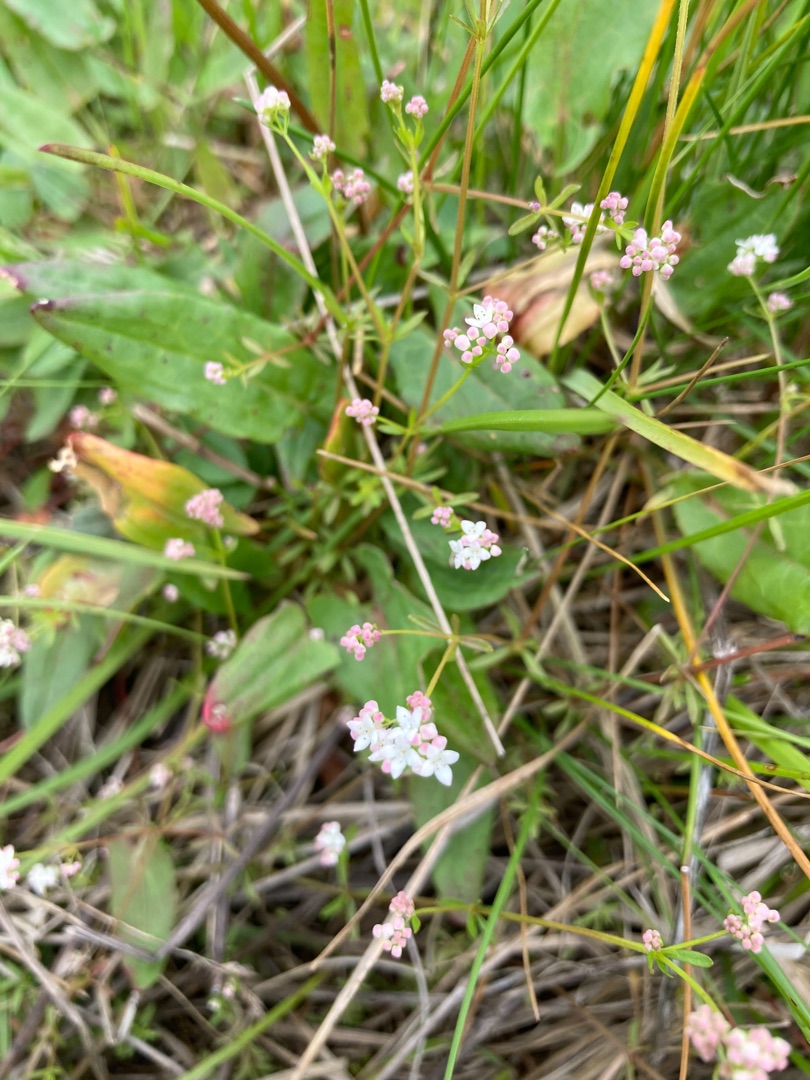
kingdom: Plantae
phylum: Tracheophyta
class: Magnoliopsida
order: Gentianales
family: Rubiaceae
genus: Galium
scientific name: Galium palustre
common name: Kær-snerre
